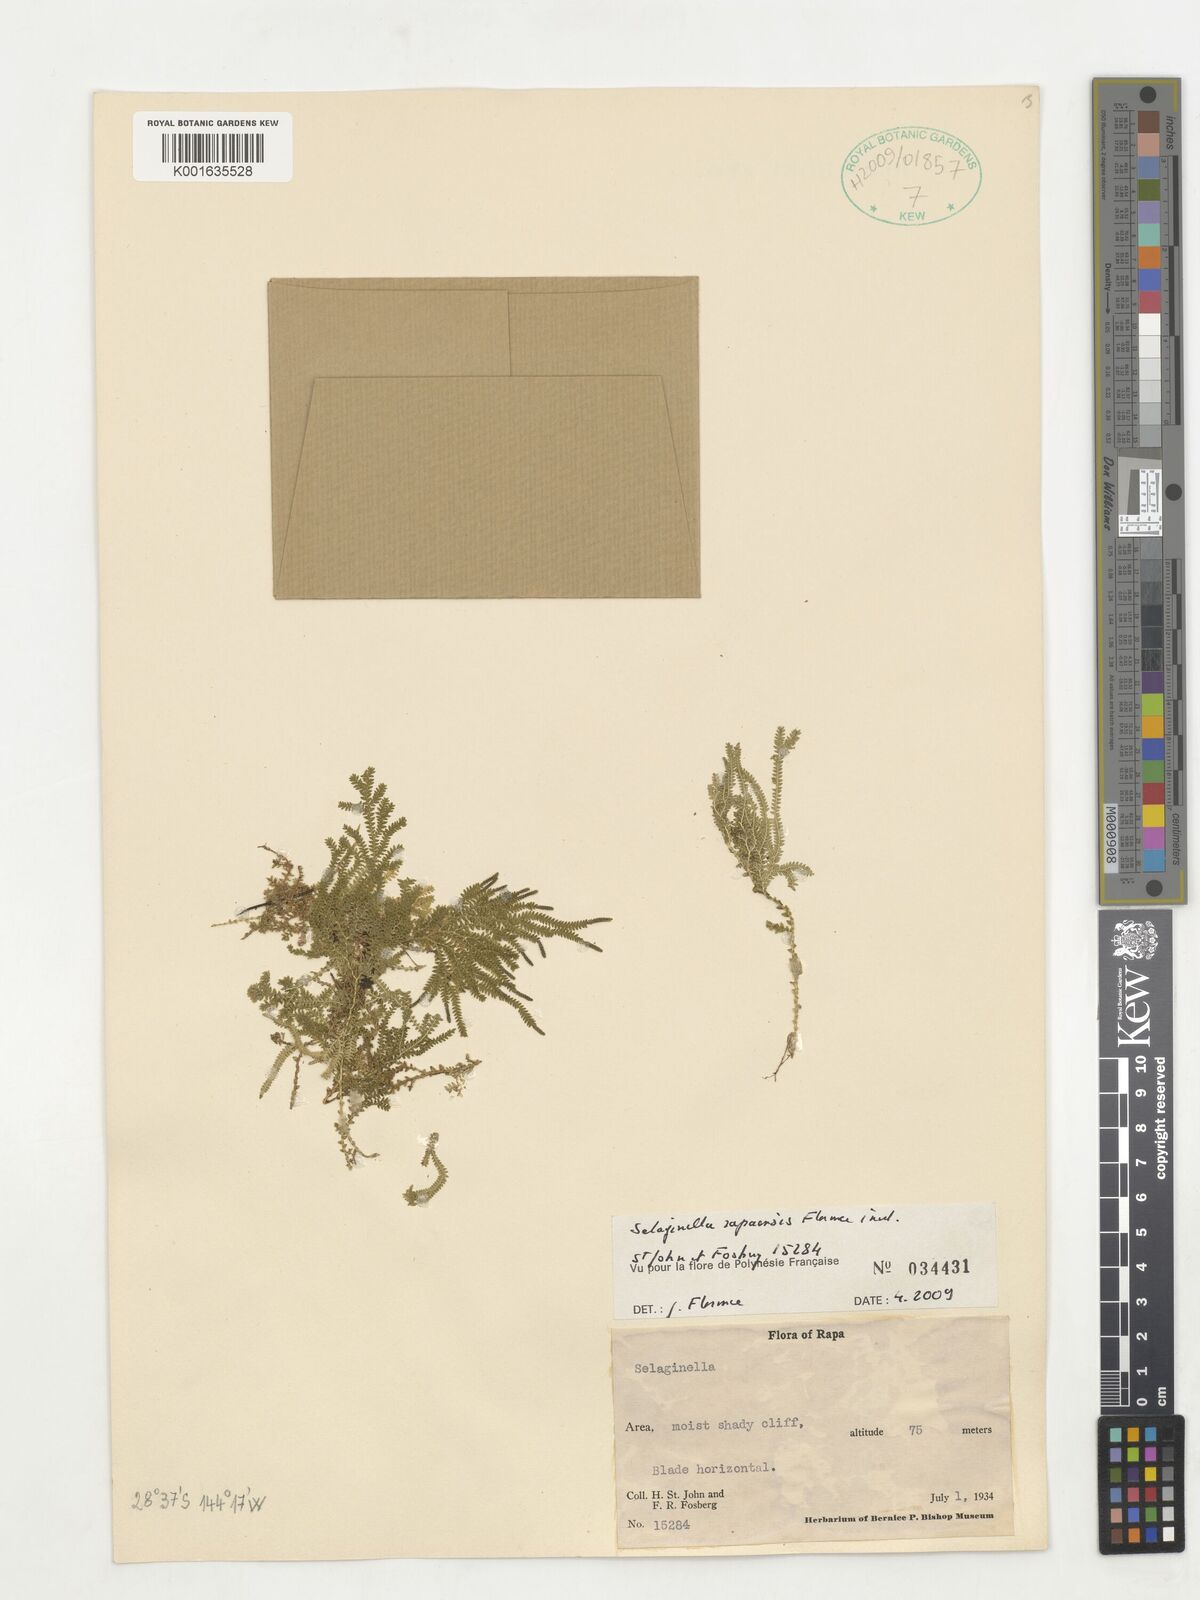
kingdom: Plantae
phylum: Tracheophyta
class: Lycopodiopsida
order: Selaginellales
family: Selaginellaceae
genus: Selaginella
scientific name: Selaginella
